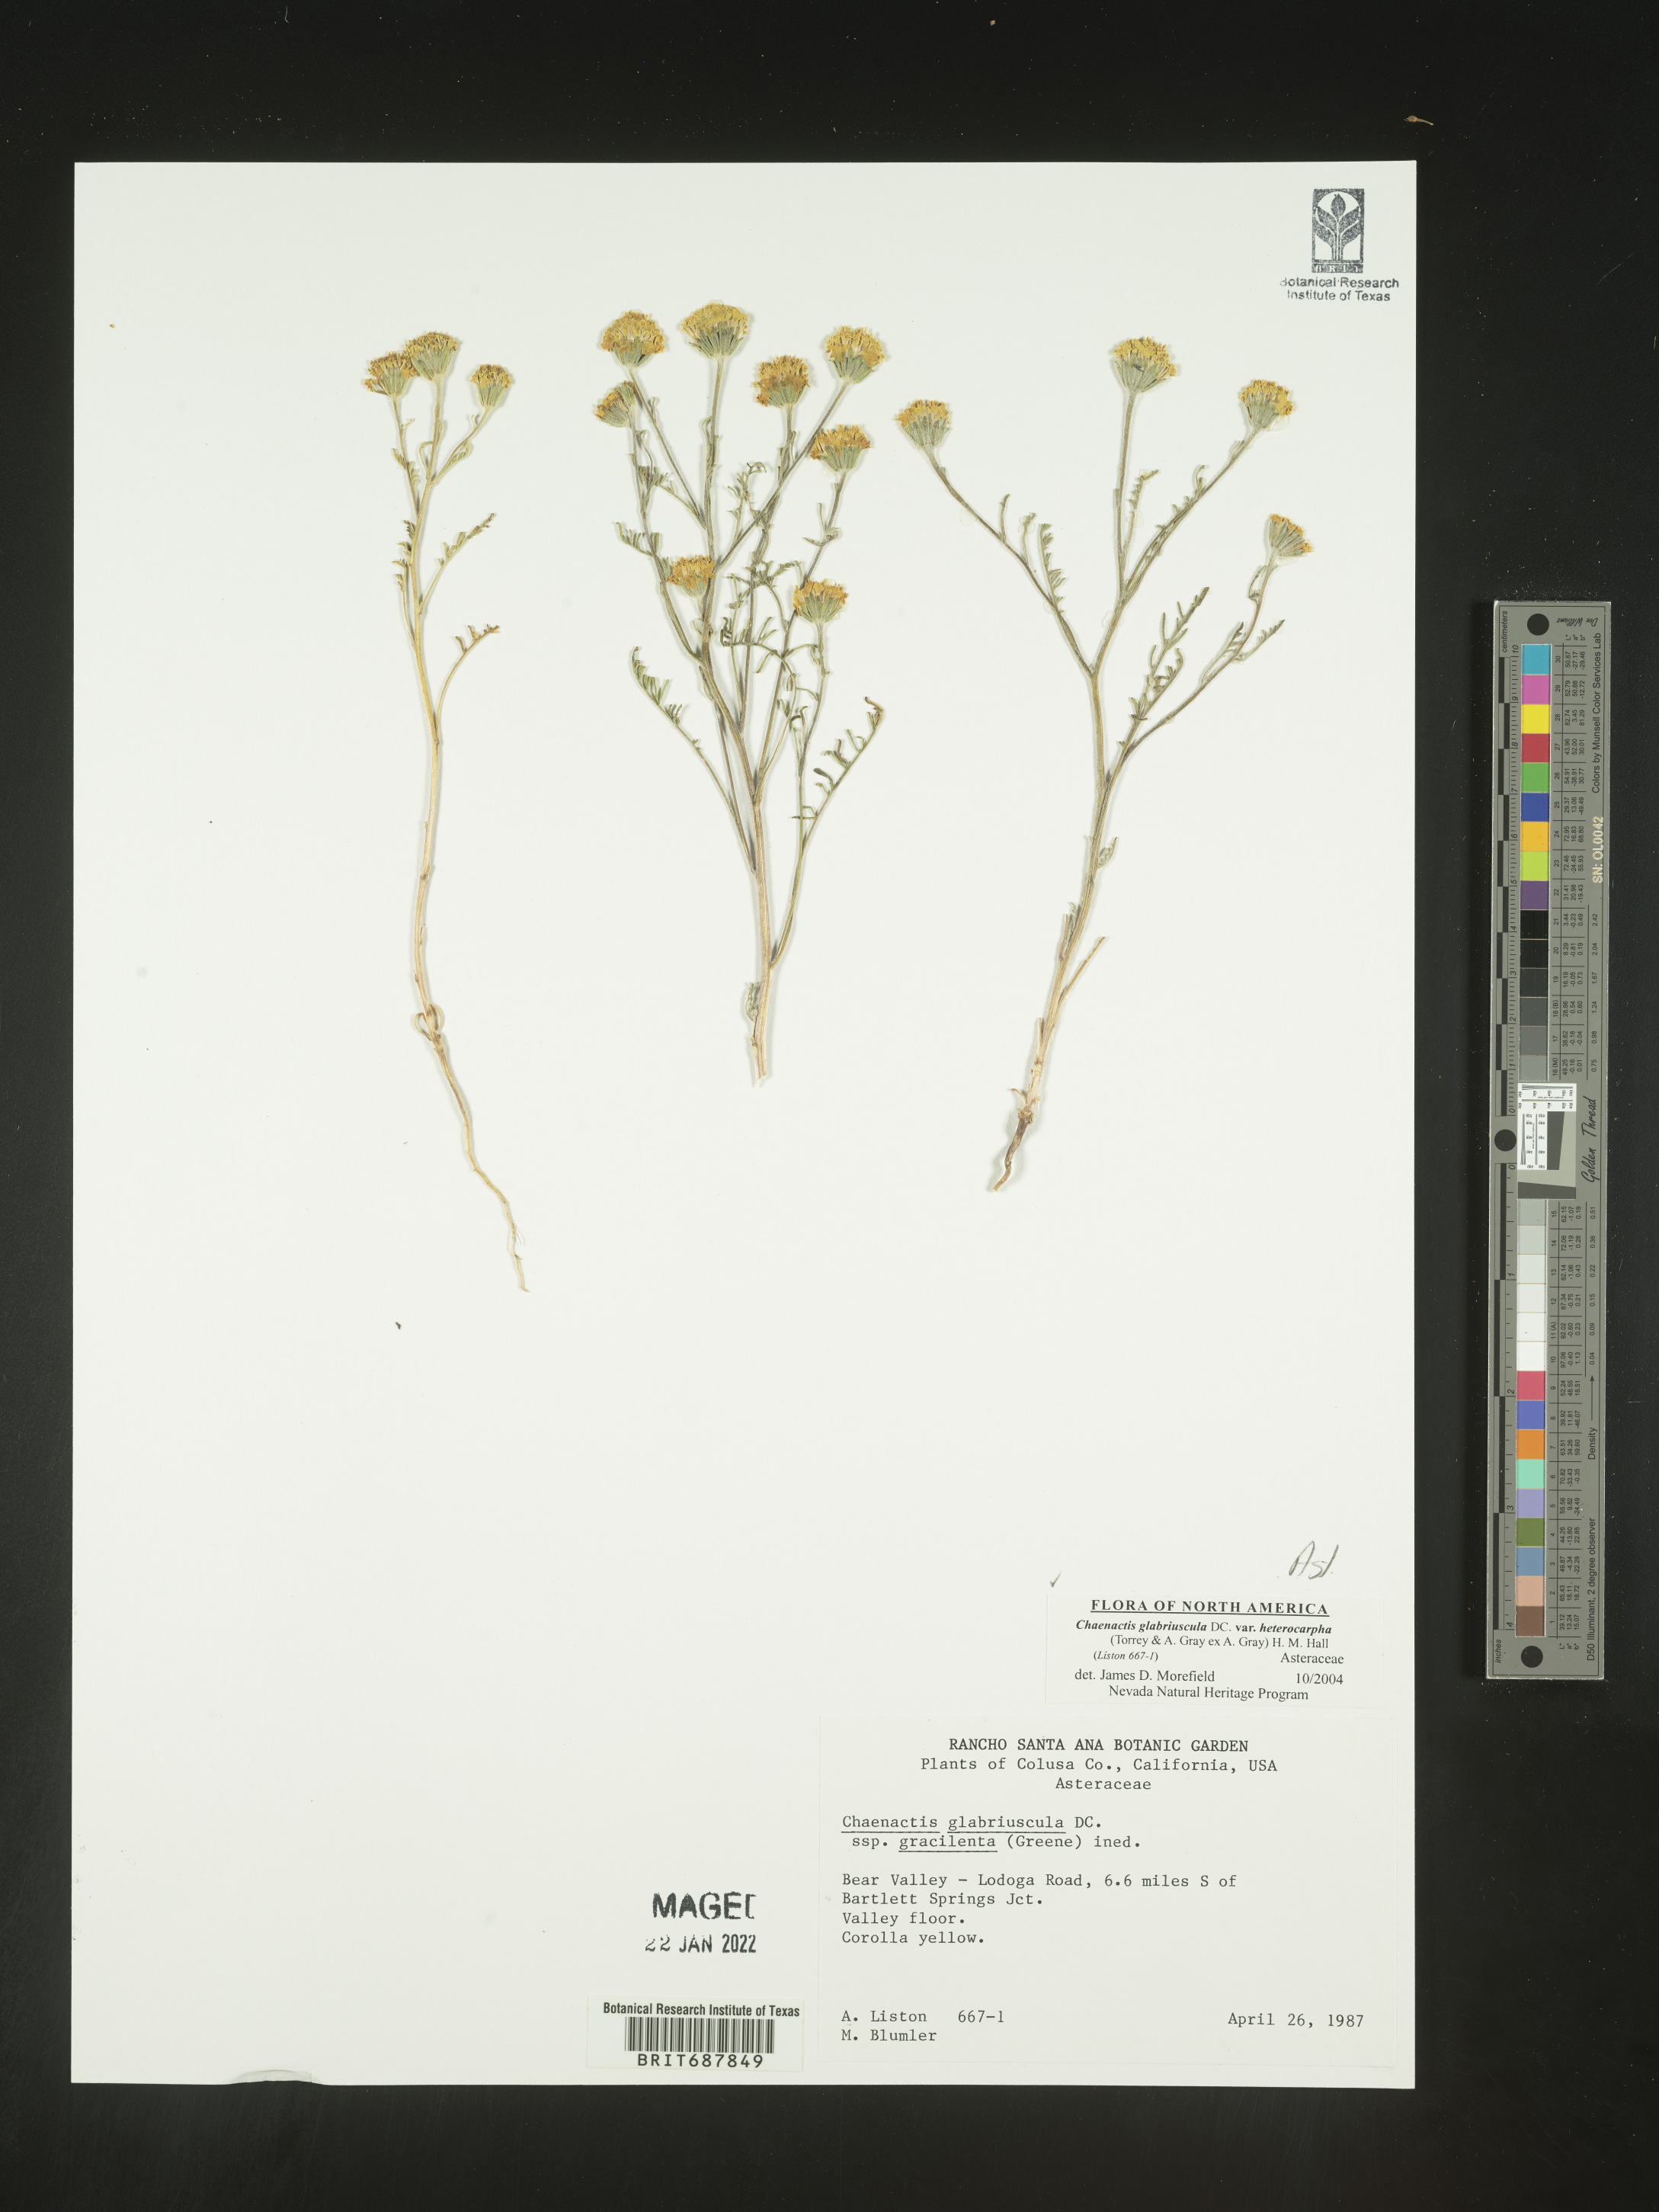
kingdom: Plantae
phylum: Tracheophyta
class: Magnoliopsida
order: Asterales
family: Asteraceae
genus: Chaenactis
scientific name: Chaenactis glabriuscula
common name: Yellow pincushion
